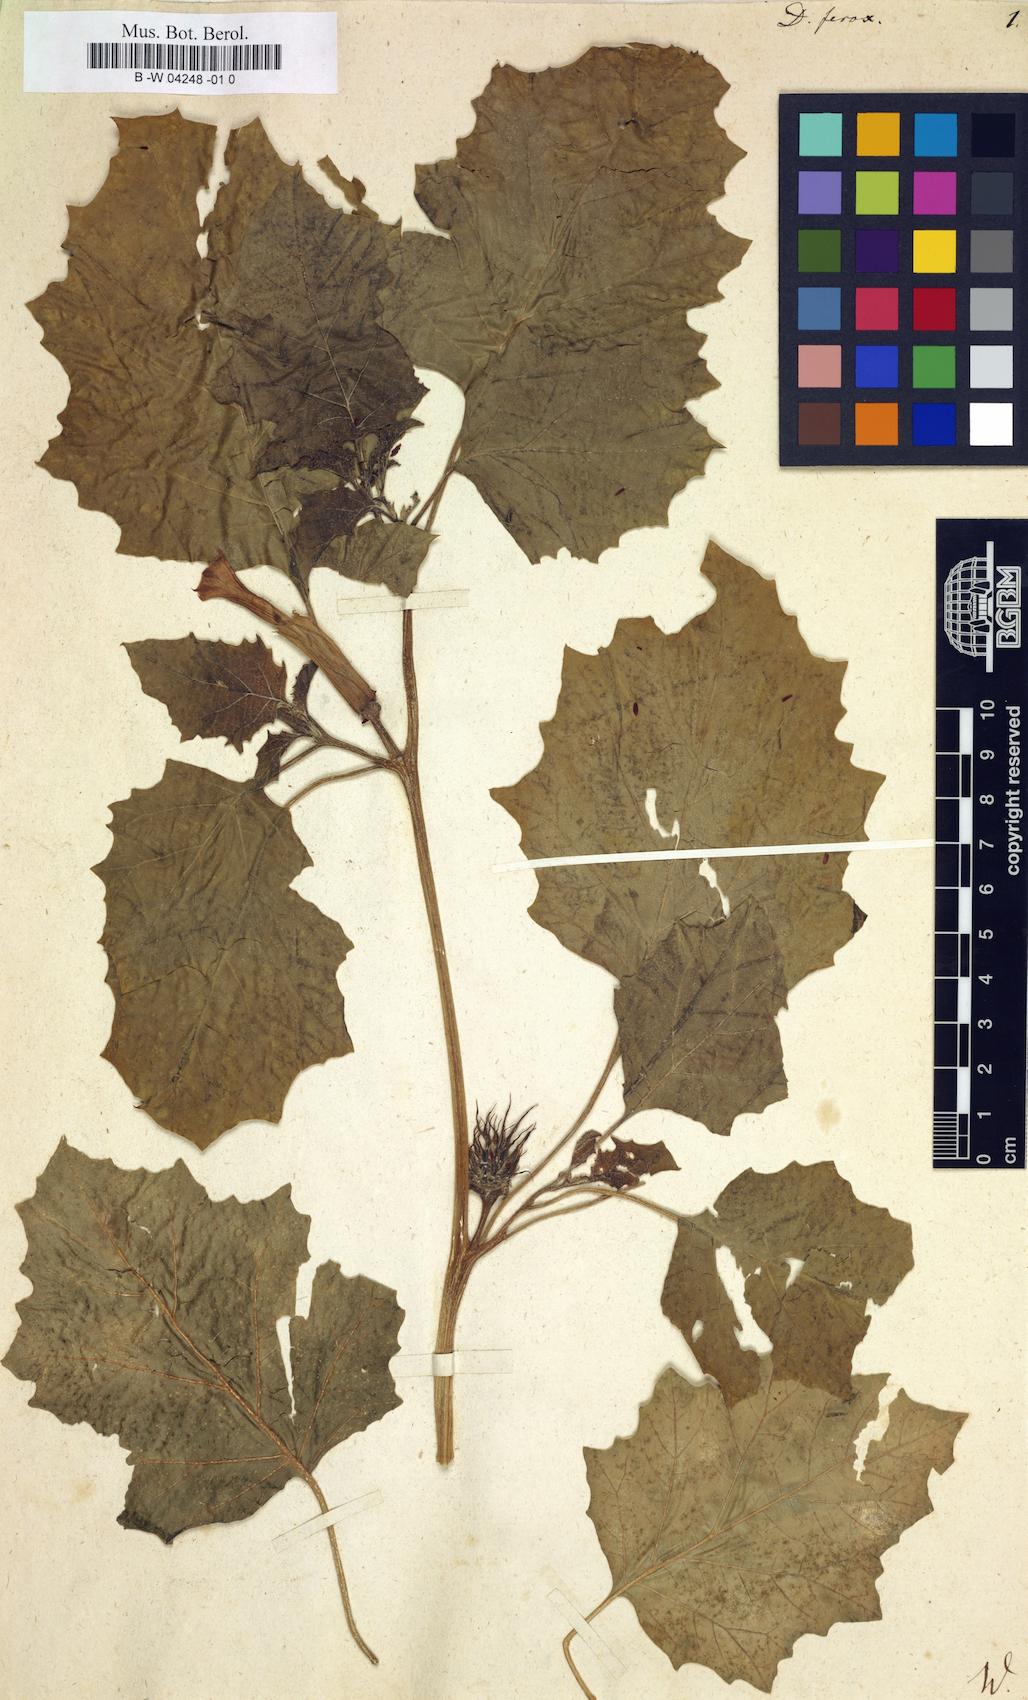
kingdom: Plantae
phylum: Tracheophyta
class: Magnoliopsida
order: Solanales
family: Solanaceae
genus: Datura
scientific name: Datura ferox
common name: Angel's-trumpets
